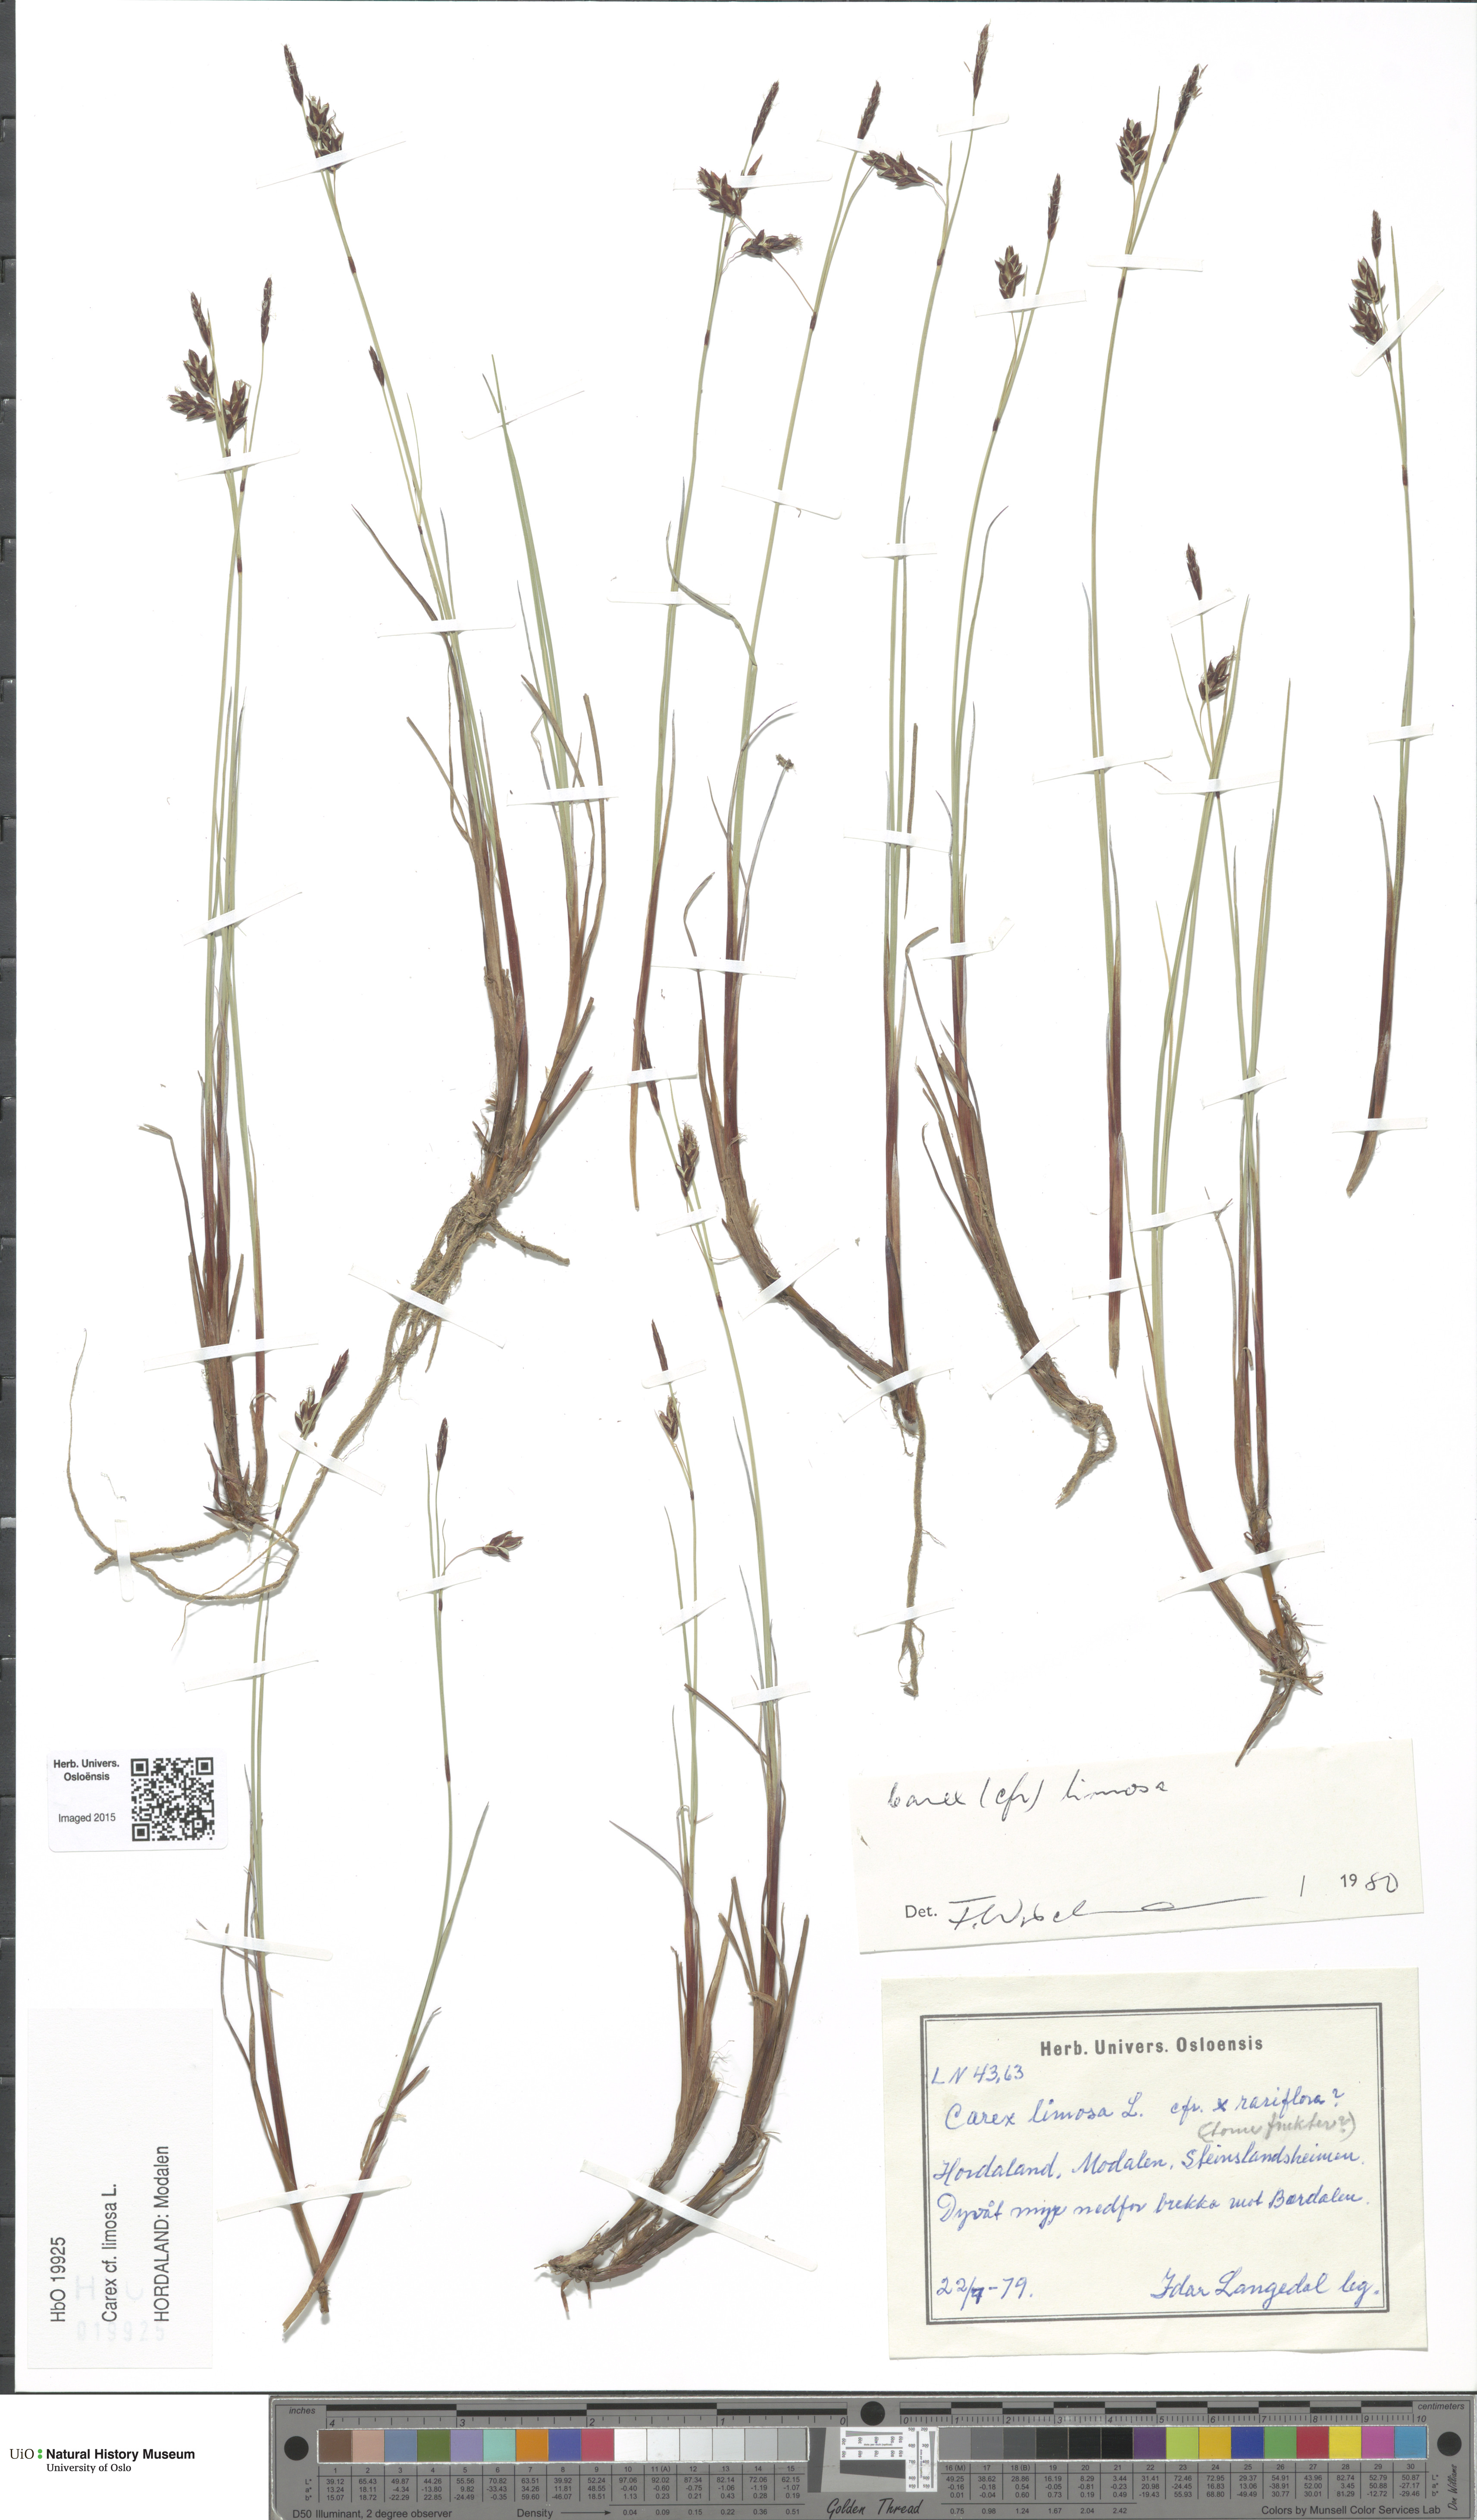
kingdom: Plantae
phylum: Tracheophyta
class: Liliopsida
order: Poales
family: Cyperaceae
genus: Carex
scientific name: Carex limosa
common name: Bog sedge
